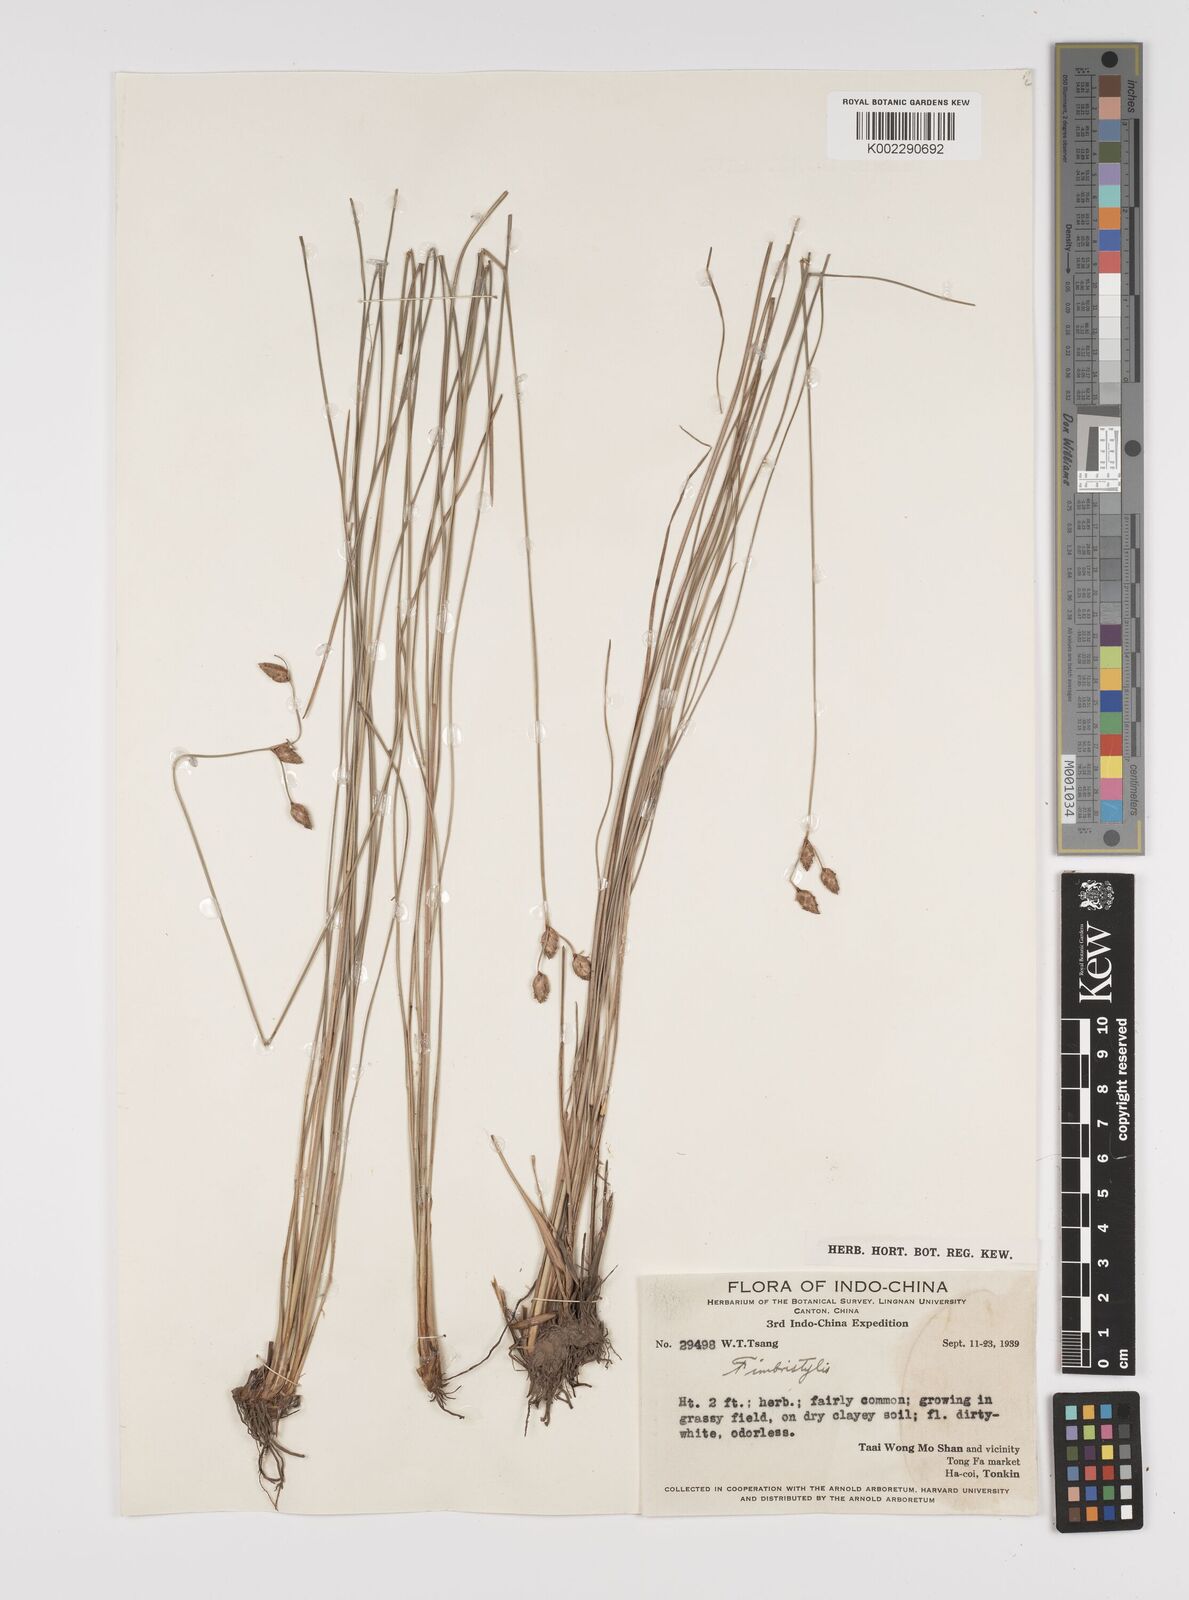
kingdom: Plantae
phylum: Tracheophyta
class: Liliopsida
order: Poales
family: Cyperaceae
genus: Fimbristylis
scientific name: Fimbristylis
